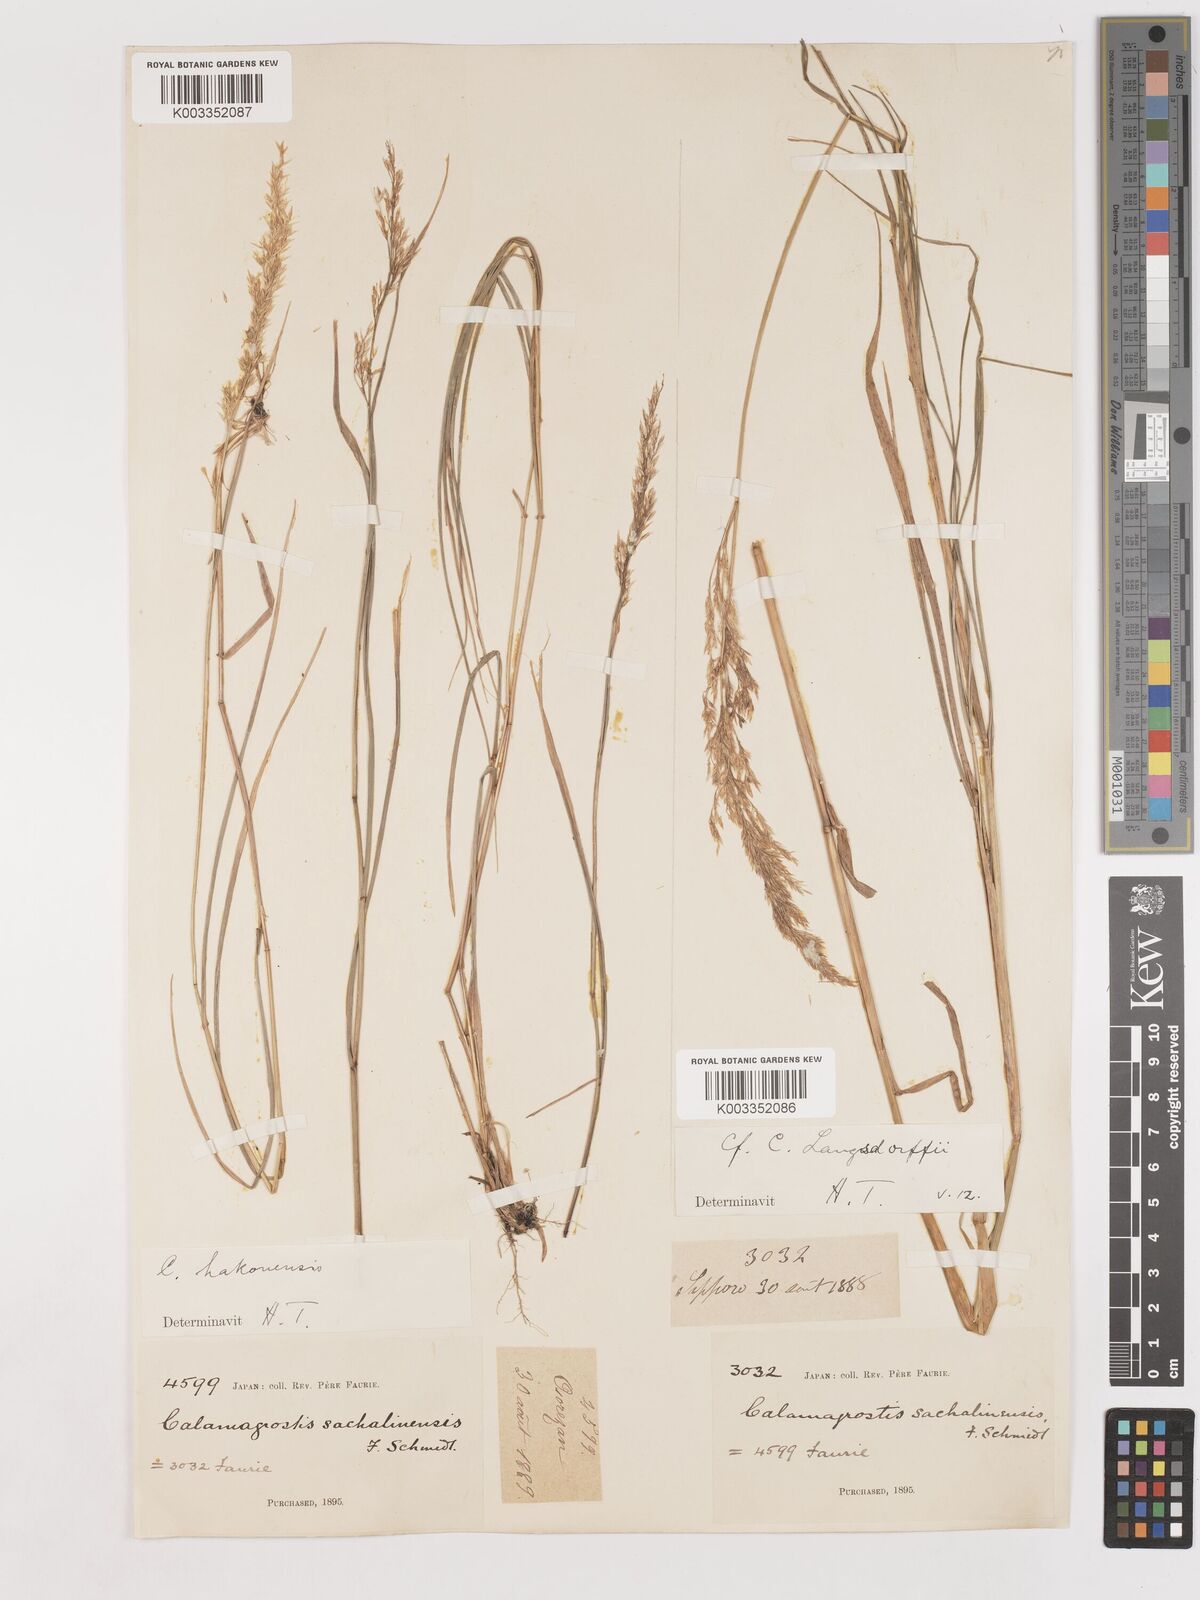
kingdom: Plantae
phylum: Tracheophyta
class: Liliopsida
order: Poales
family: Poaceae
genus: Calamagrostis
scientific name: Calamagrostis hakonensis
